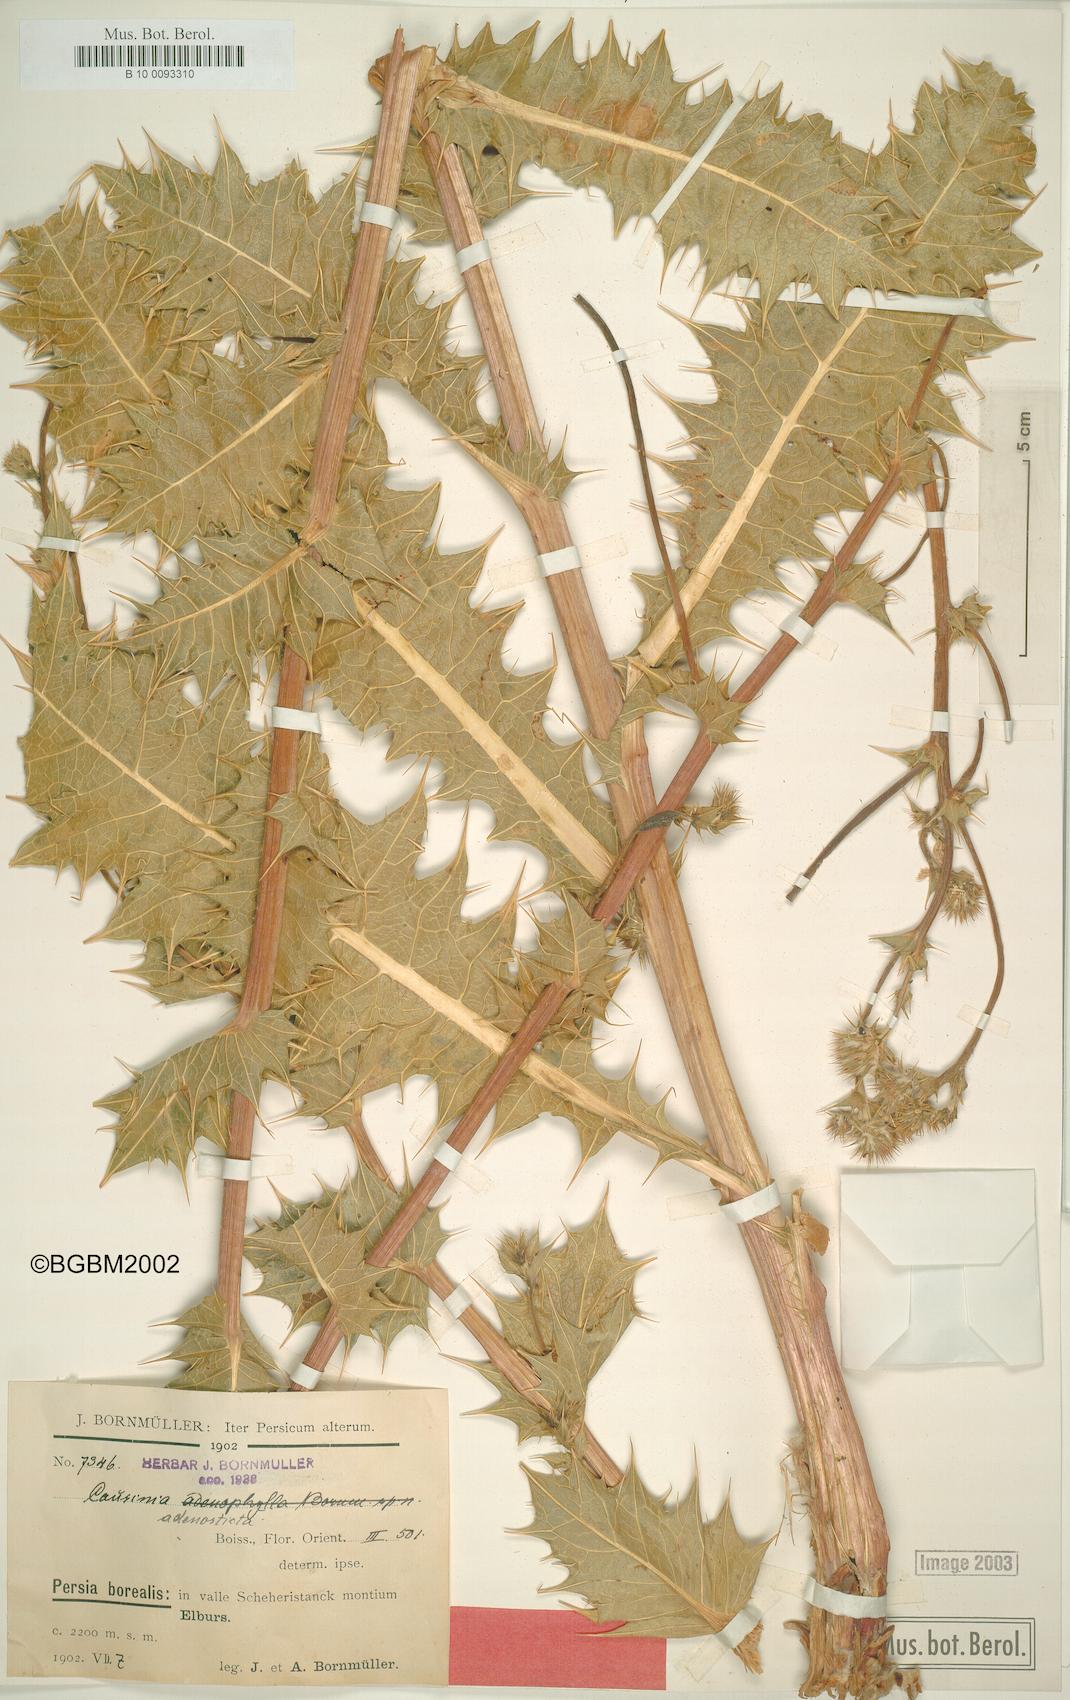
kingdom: Plantae
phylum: Tracheophyta
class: Magnoliopsida
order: Asterales
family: Asteraceae
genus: Cousinia
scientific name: Cousinia adenosticta
